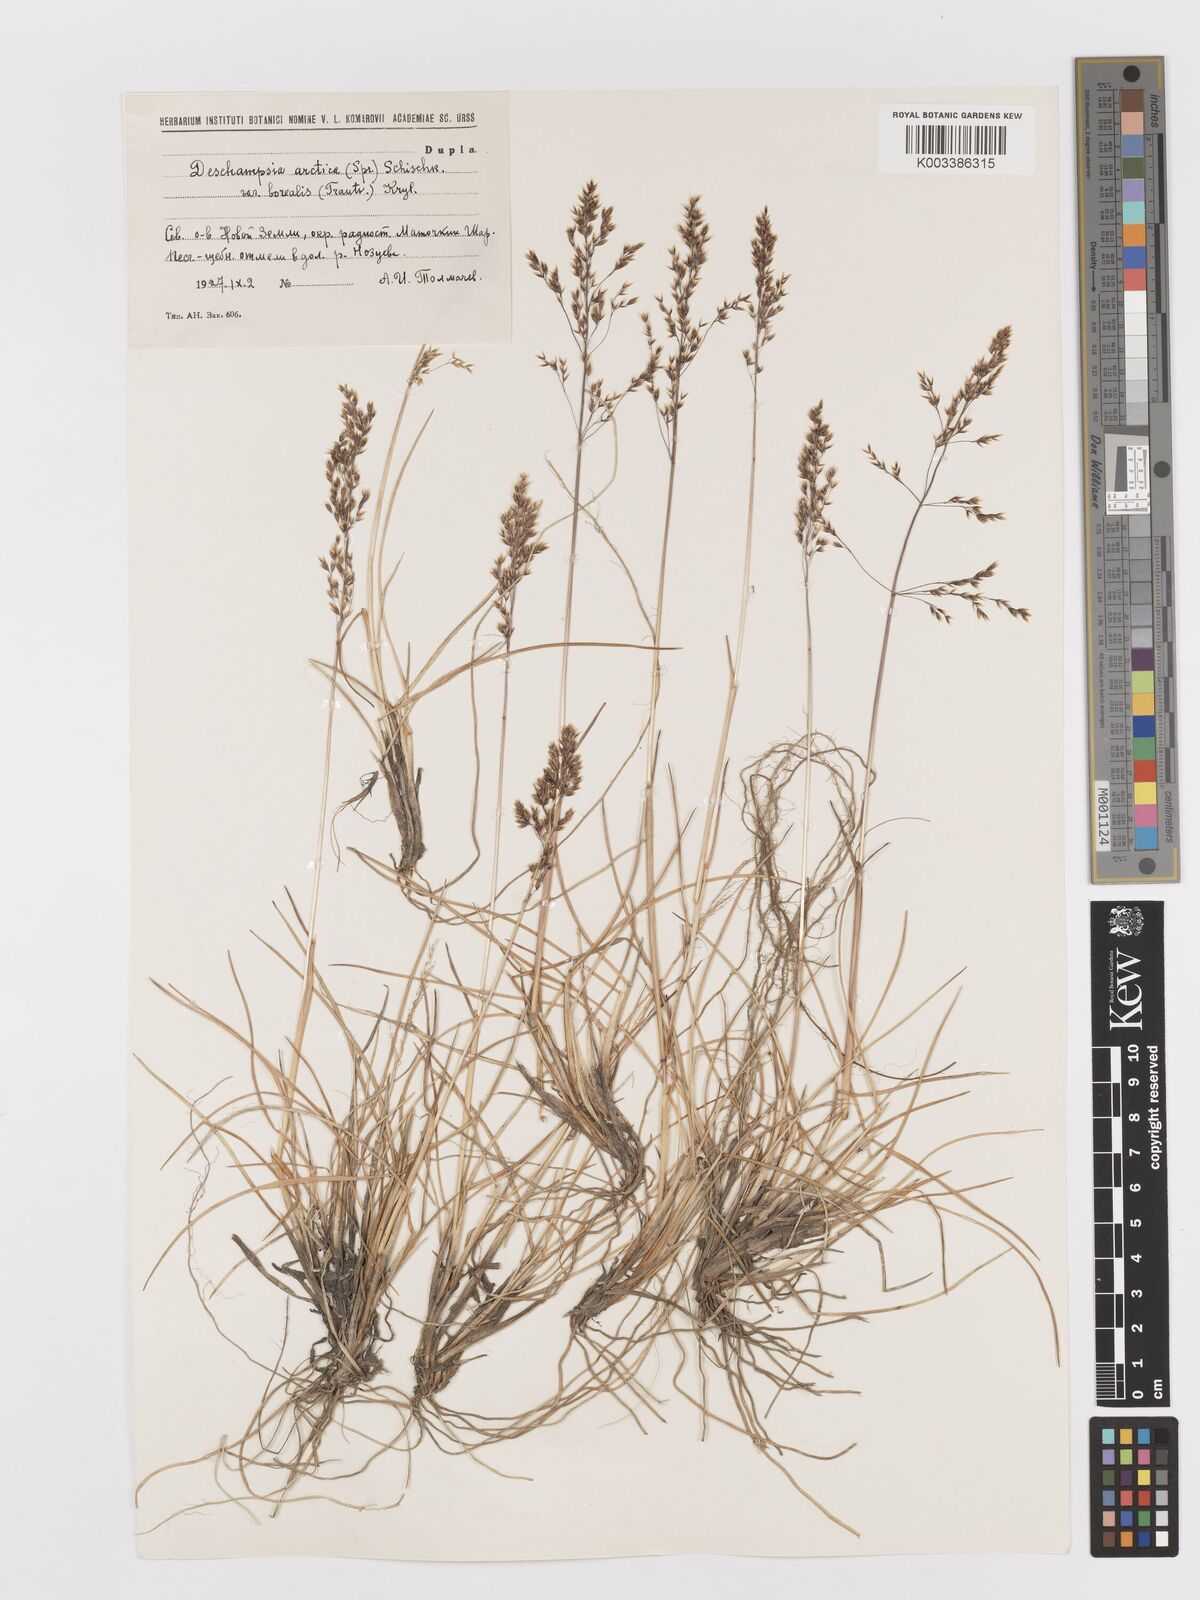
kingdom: Plantae
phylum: Tracheophyta
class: Liliopsida
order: Poales
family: Poaceae
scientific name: Poaceae
